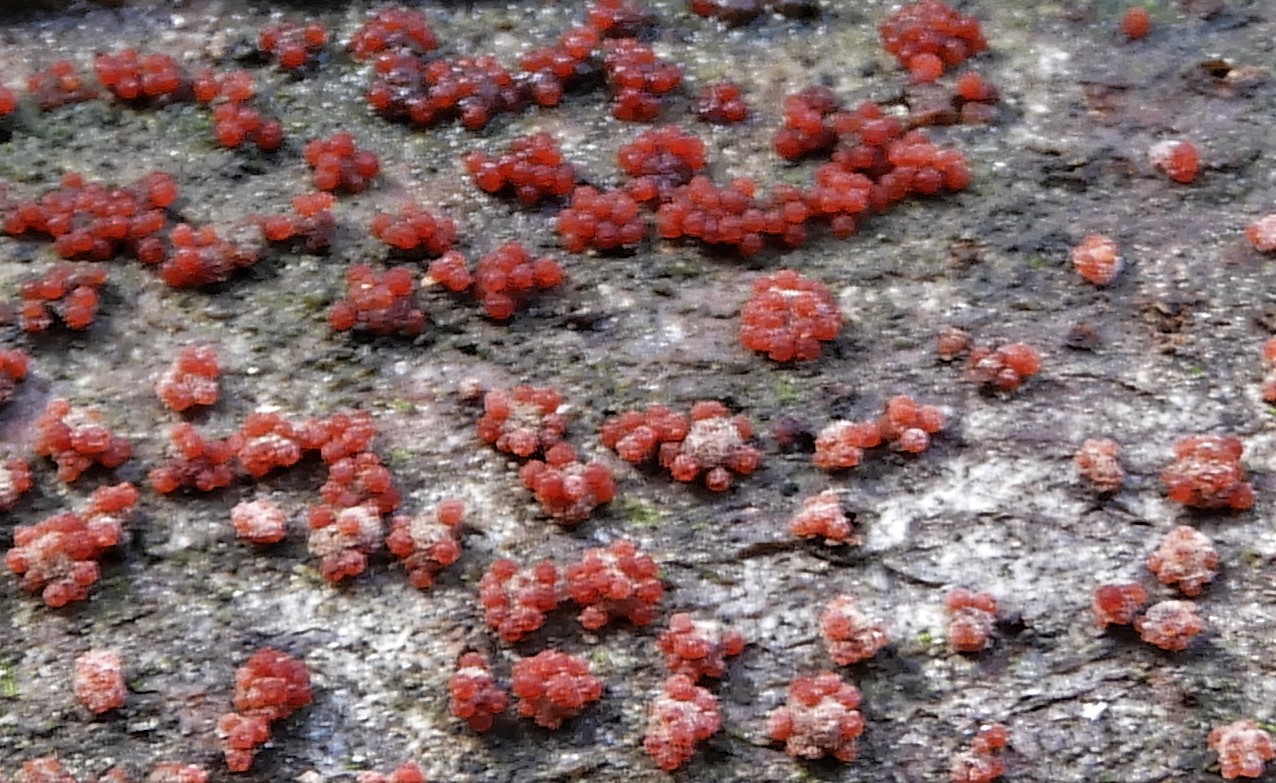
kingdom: Fungi
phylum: Ascomycota
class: Sordariomycetes
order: Hypocreales
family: Nectriaceae
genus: Neonectria
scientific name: Neonectria coccinea
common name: bøgebark-cinnobersvamp
